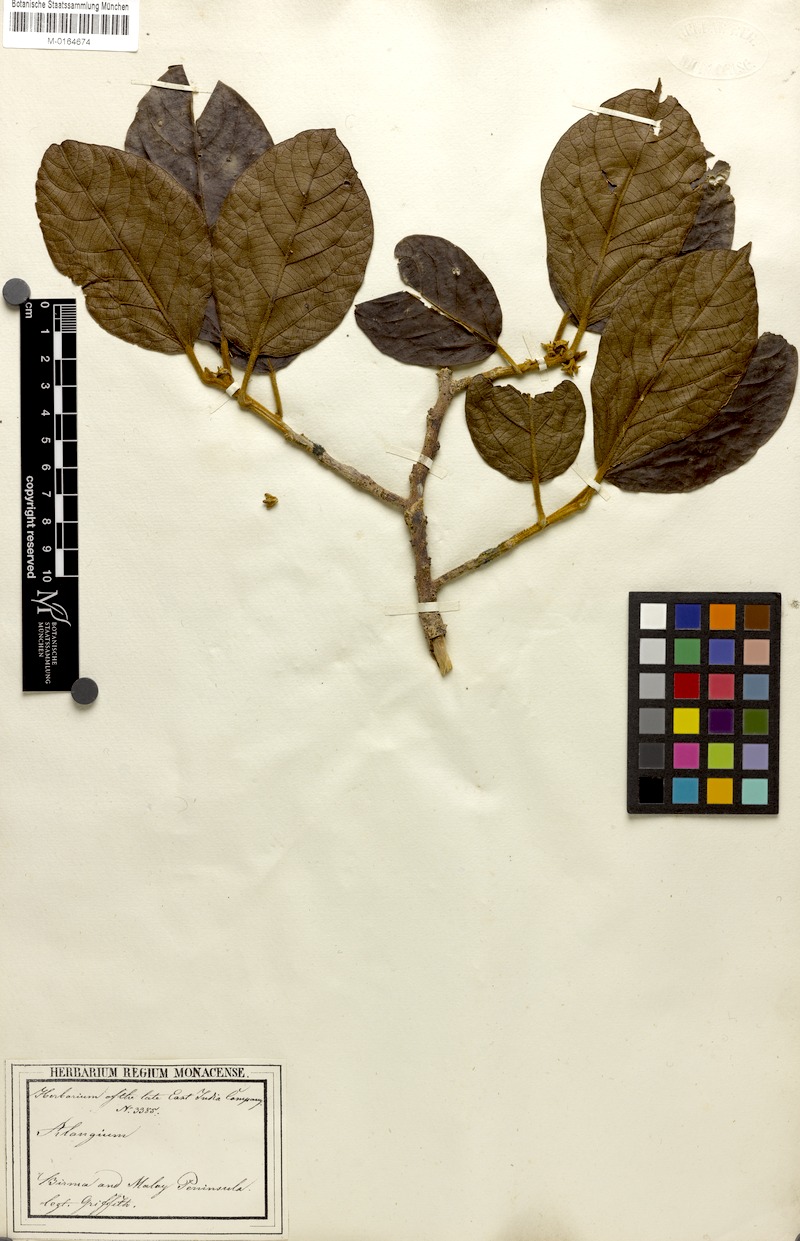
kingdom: Plantae
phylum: Tracheophyta
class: Magnoliopsida
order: Cornales
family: Cornaceae
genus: Alangium
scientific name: Alangium nobile
